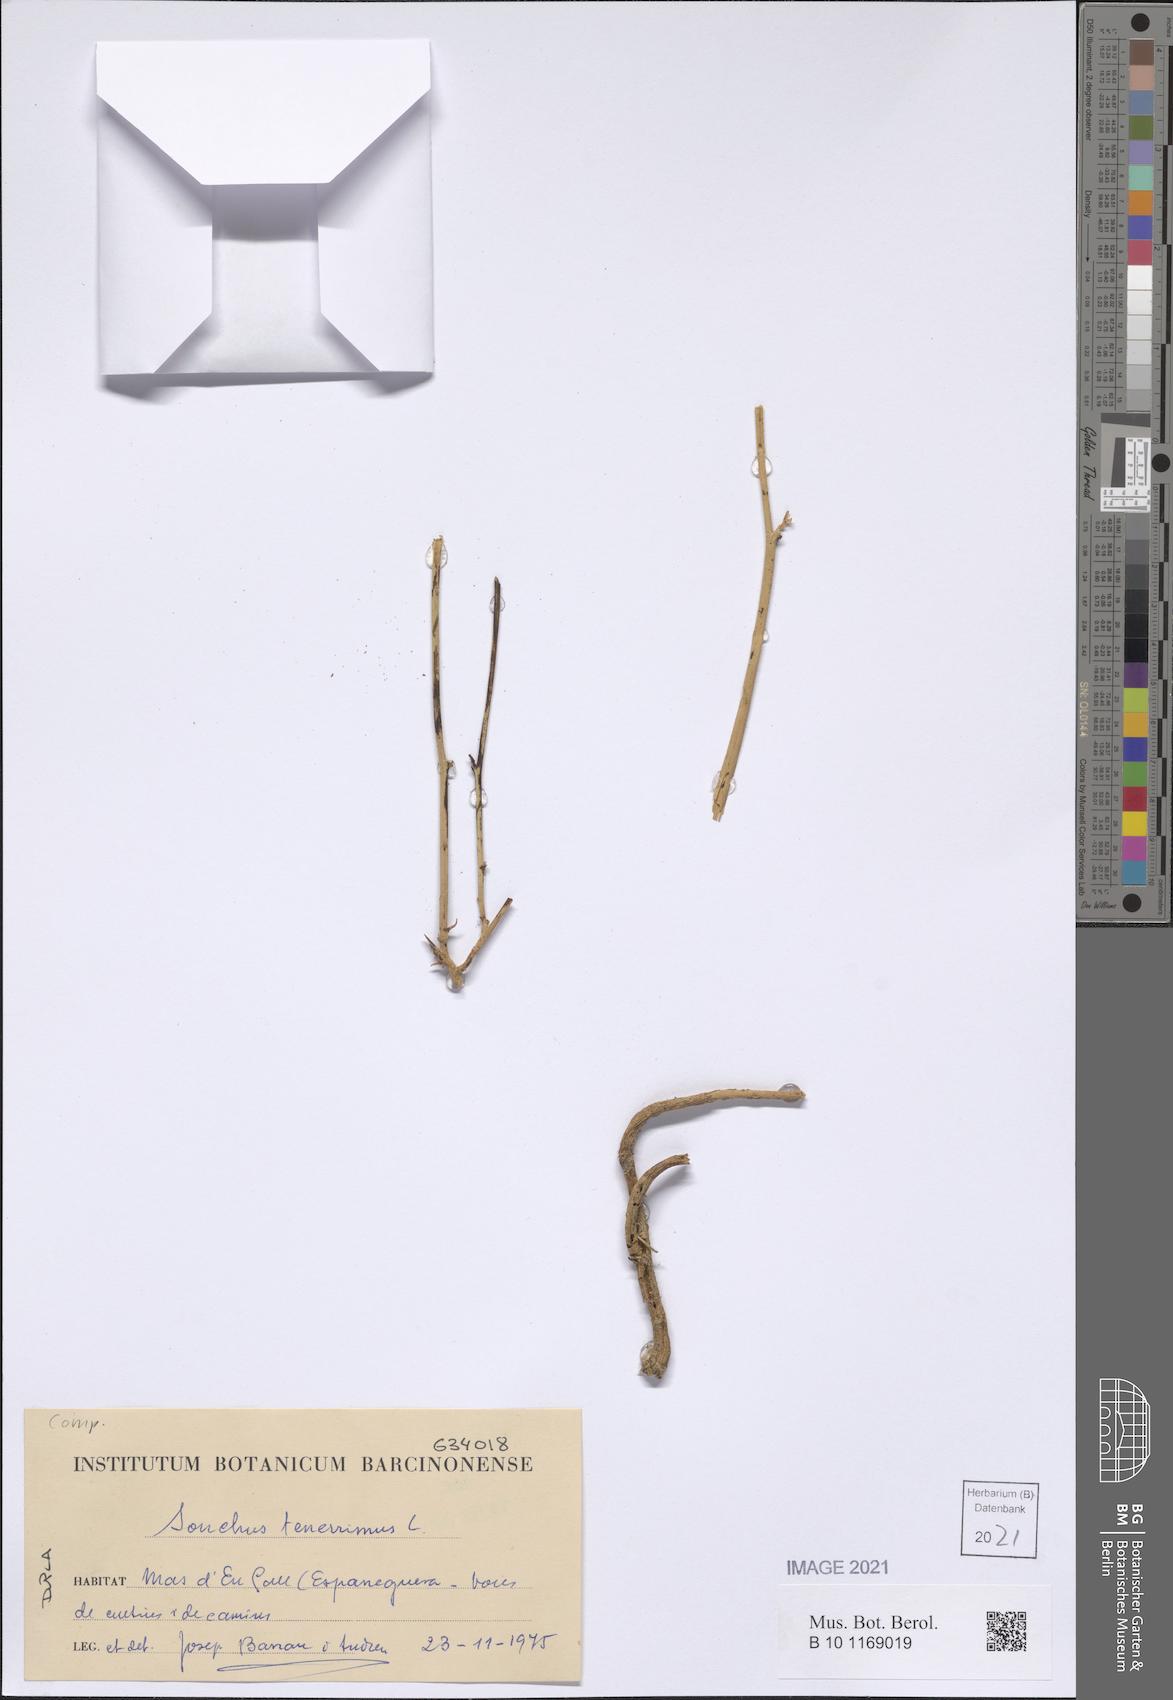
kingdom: Plantae
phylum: Tracheophyta
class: Magnoliopsida
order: Asterales
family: Asteraceae
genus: Sonchus
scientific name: Sonchus tenerrimus
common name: Clammy sowthistle
